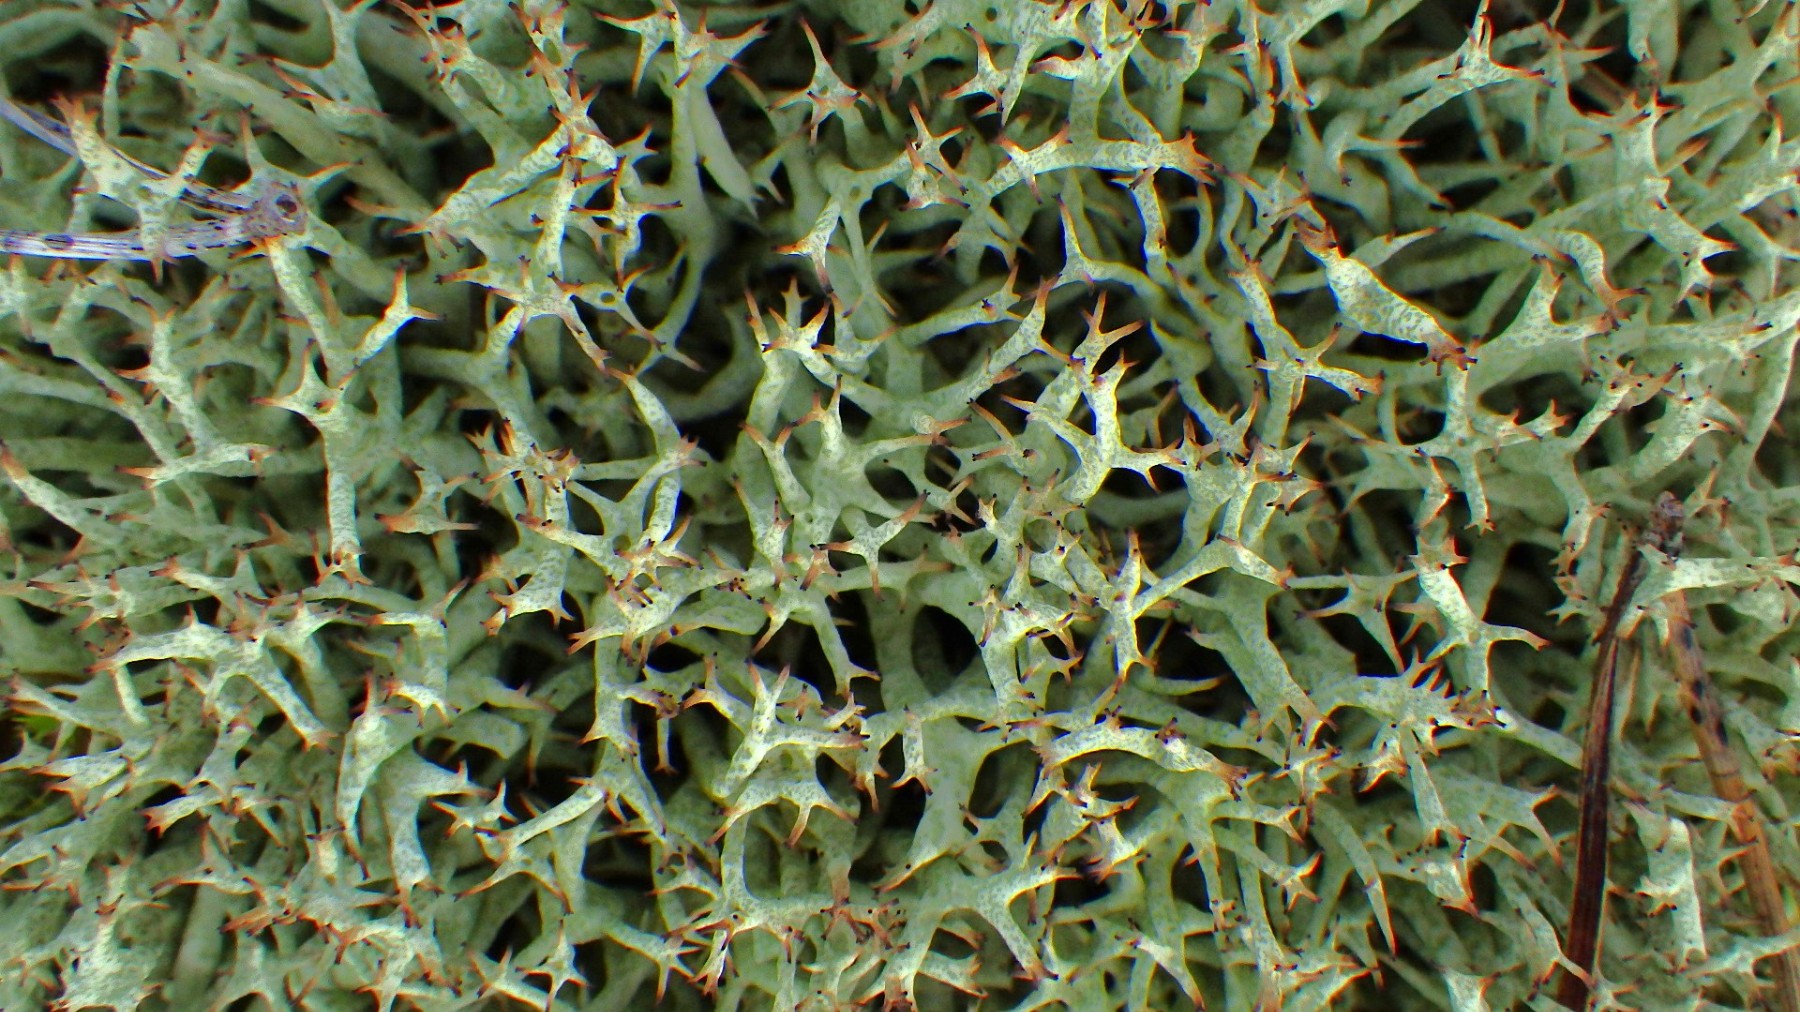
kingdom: Fungi
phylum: Ascomycota
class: Lecanoromycetes
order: Lecanorales
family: Cladoniaceae
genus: Cladonia
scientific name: Cladonia uncialis
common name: pigget bægerlav
